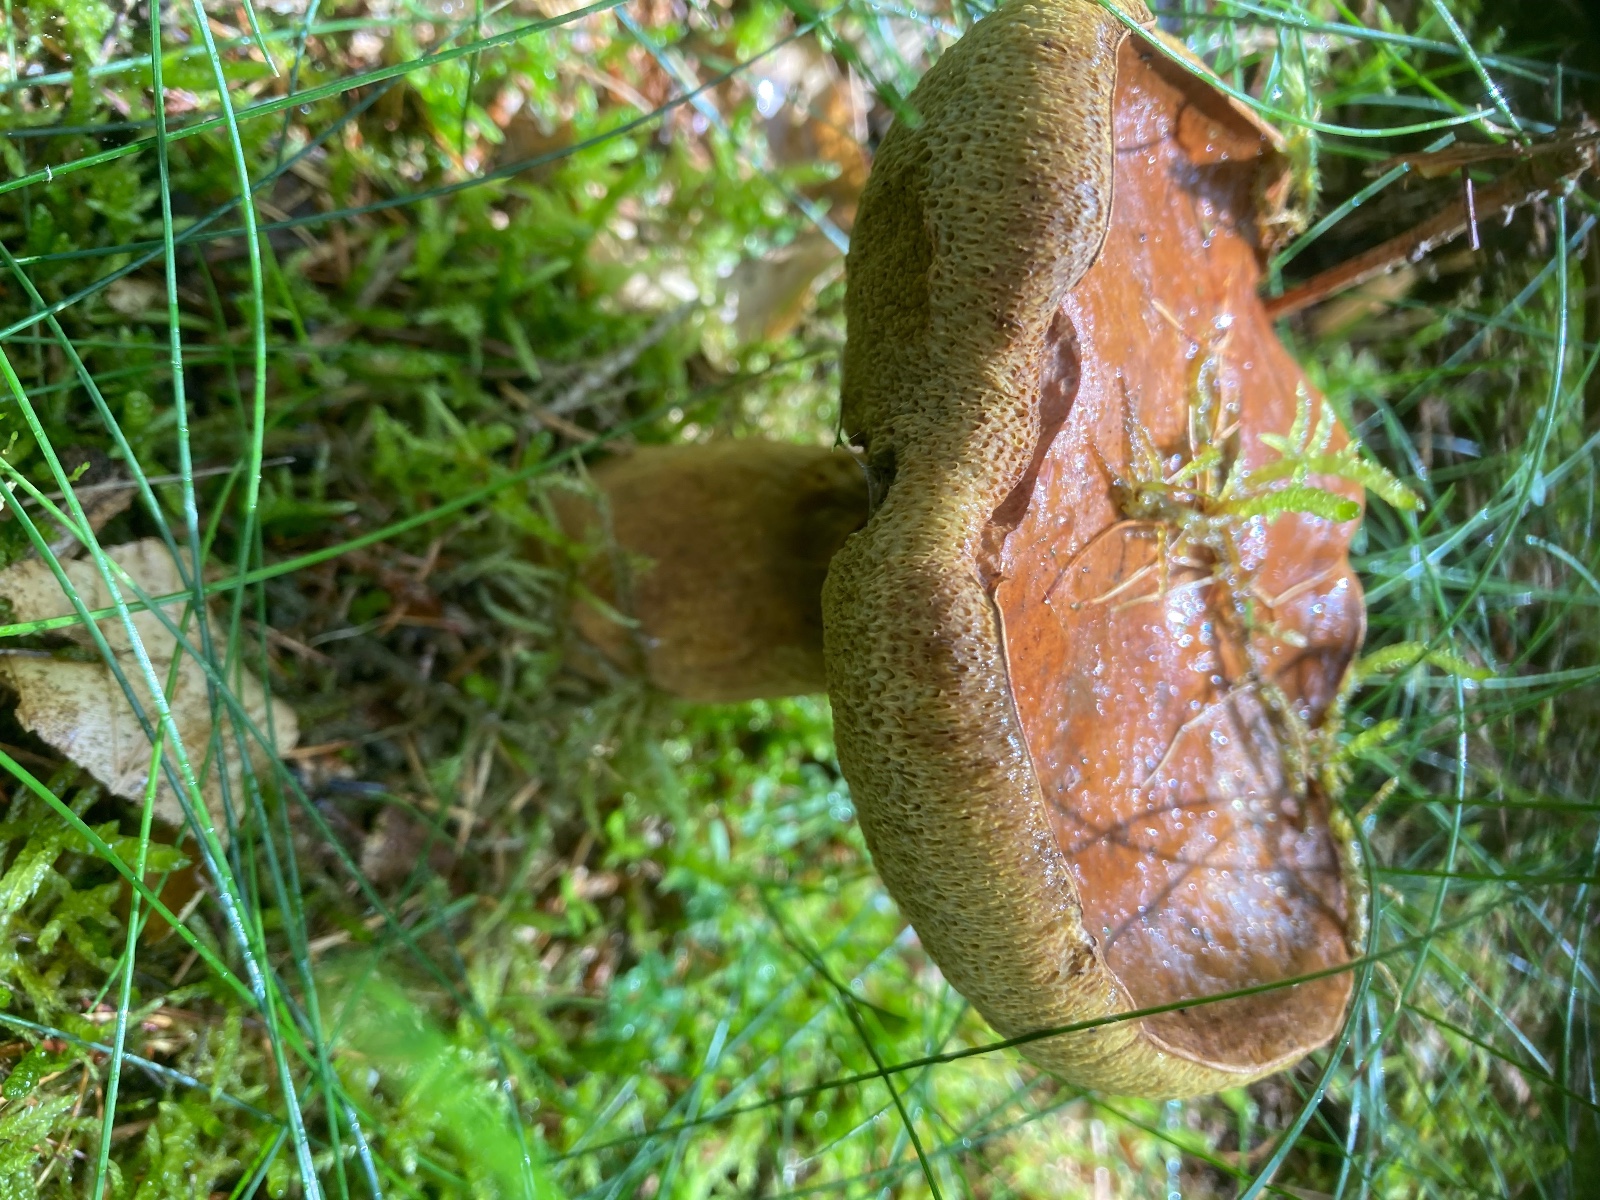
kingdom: Fungi
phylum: Basidiomycota
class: Agaricomycetes
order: Boletales
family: Boletaceae
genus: Imleria
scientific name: Imleria badia
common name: brunstokket rørhat
